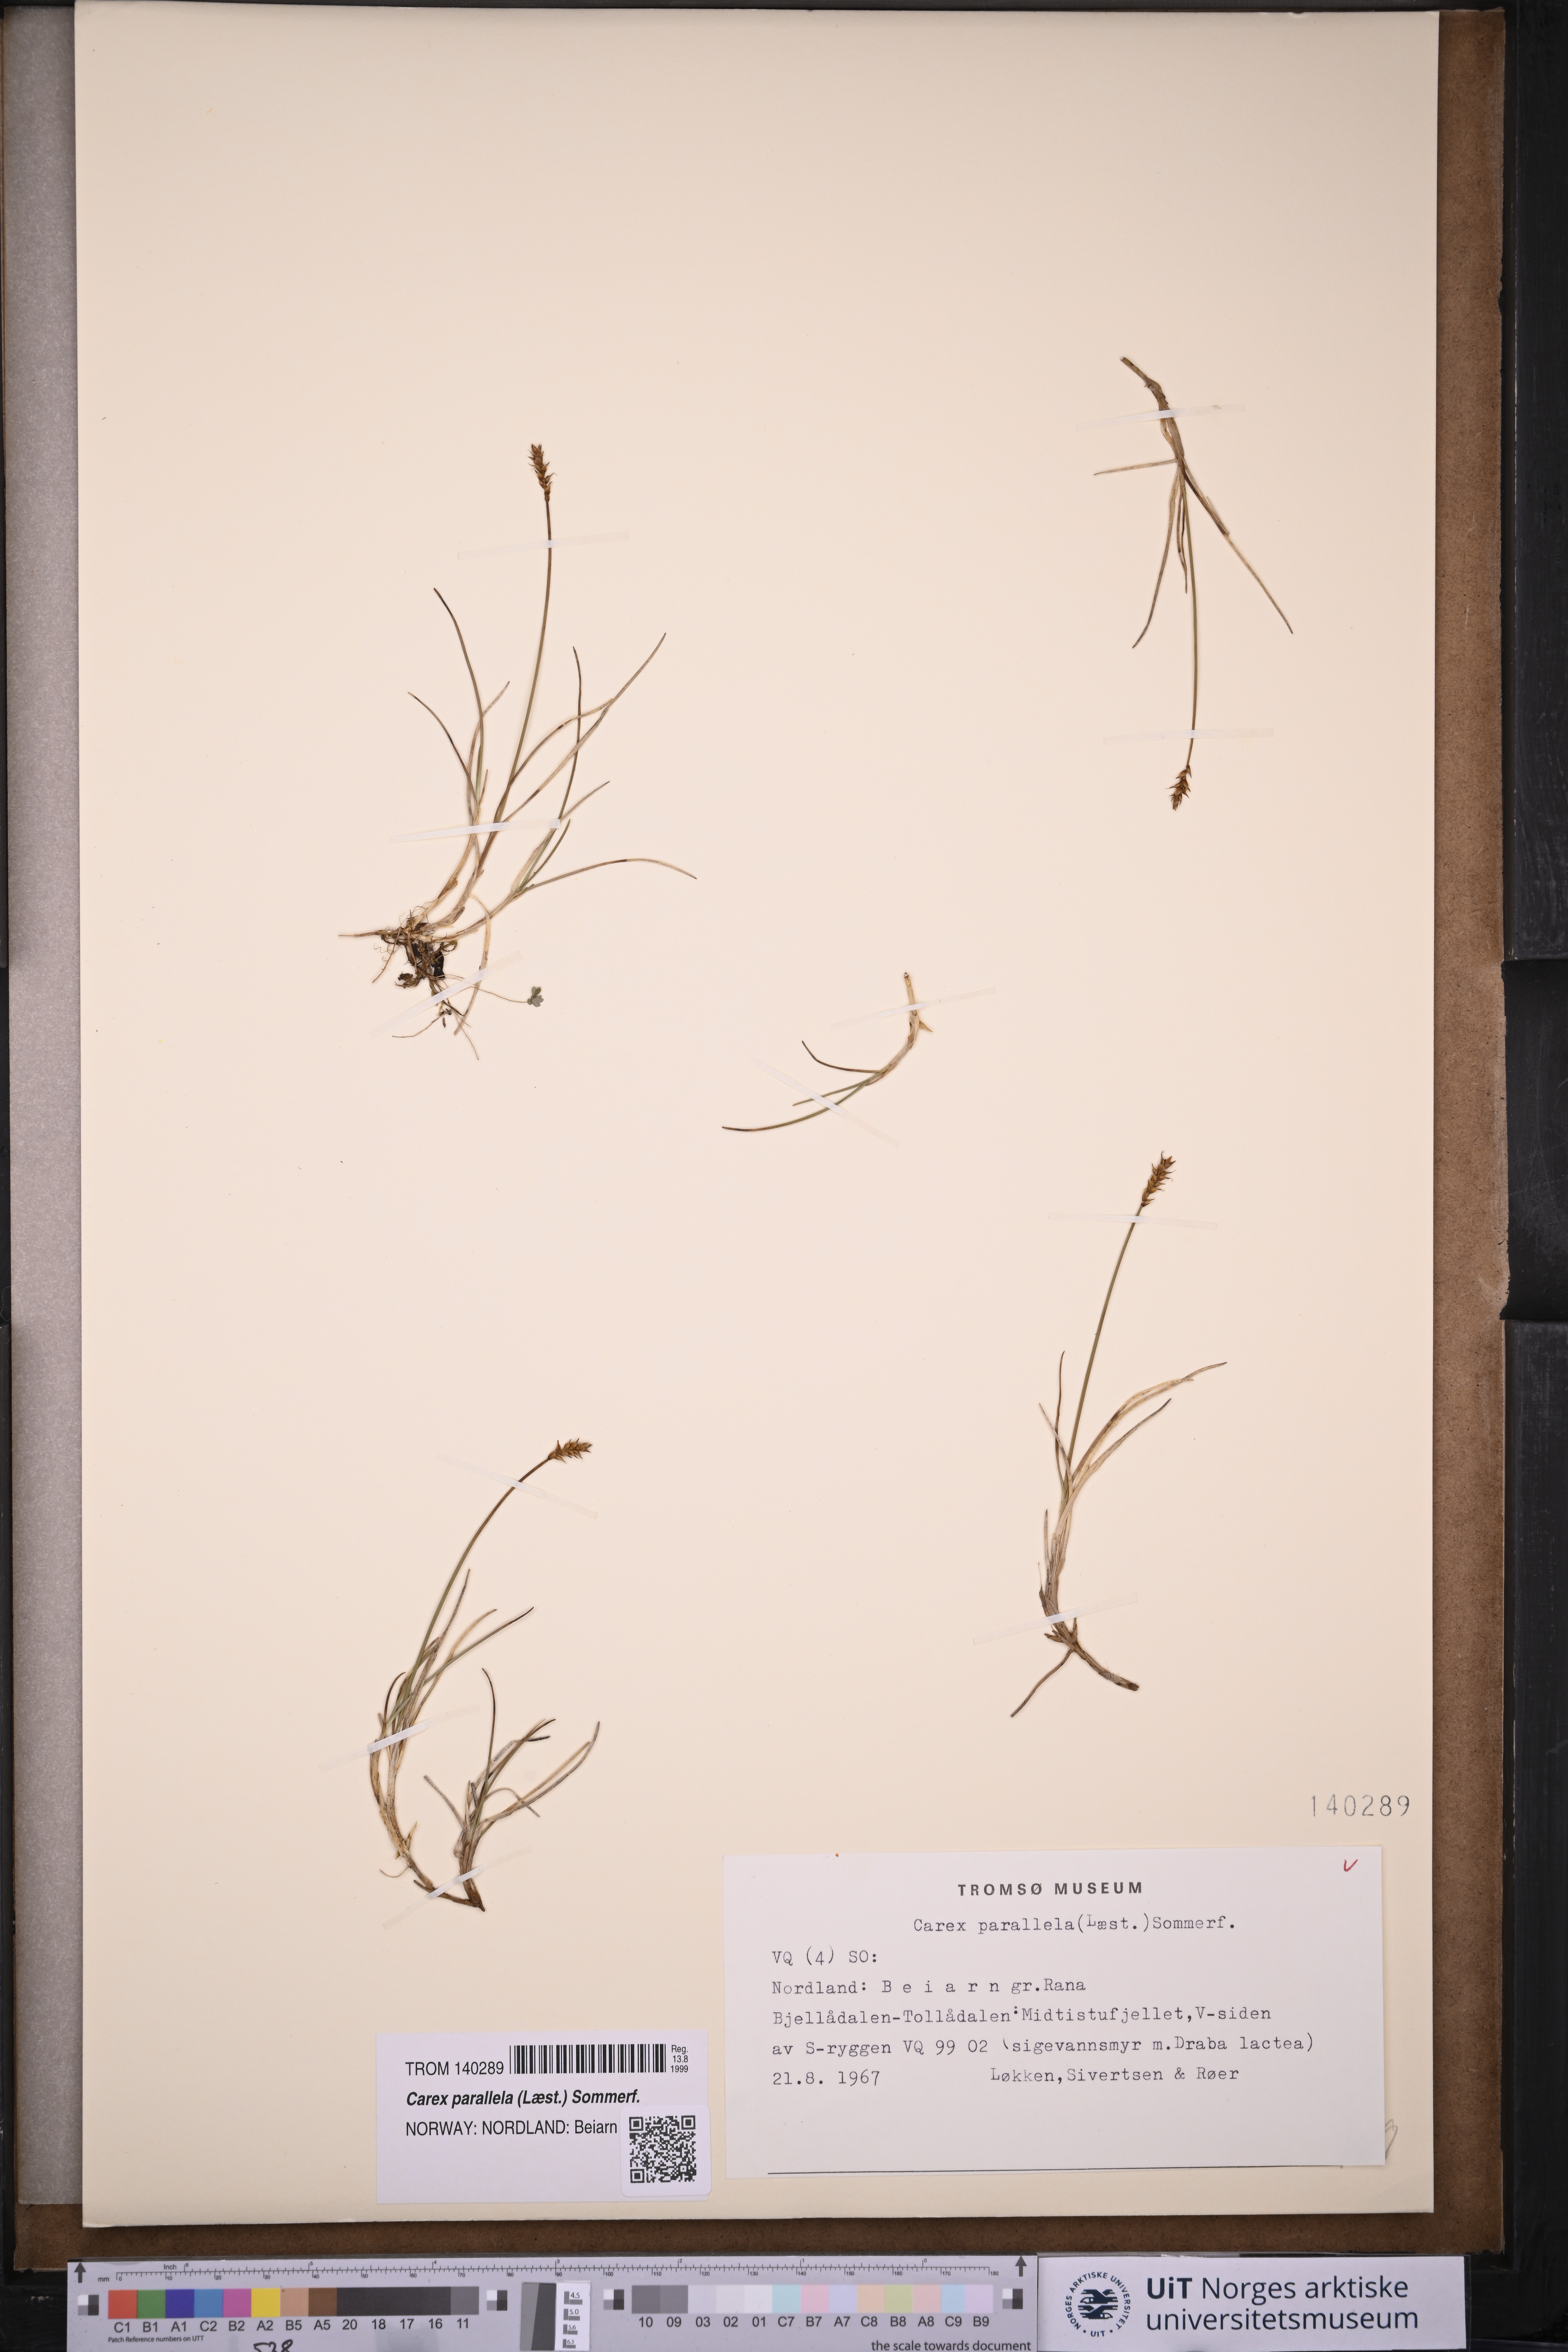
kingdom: Plantae
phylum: Tracheophyta
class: Liliopsida
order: Poales
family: Cyperaceae
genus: Carex
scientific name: Carex parallela
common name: Parallel sedge
